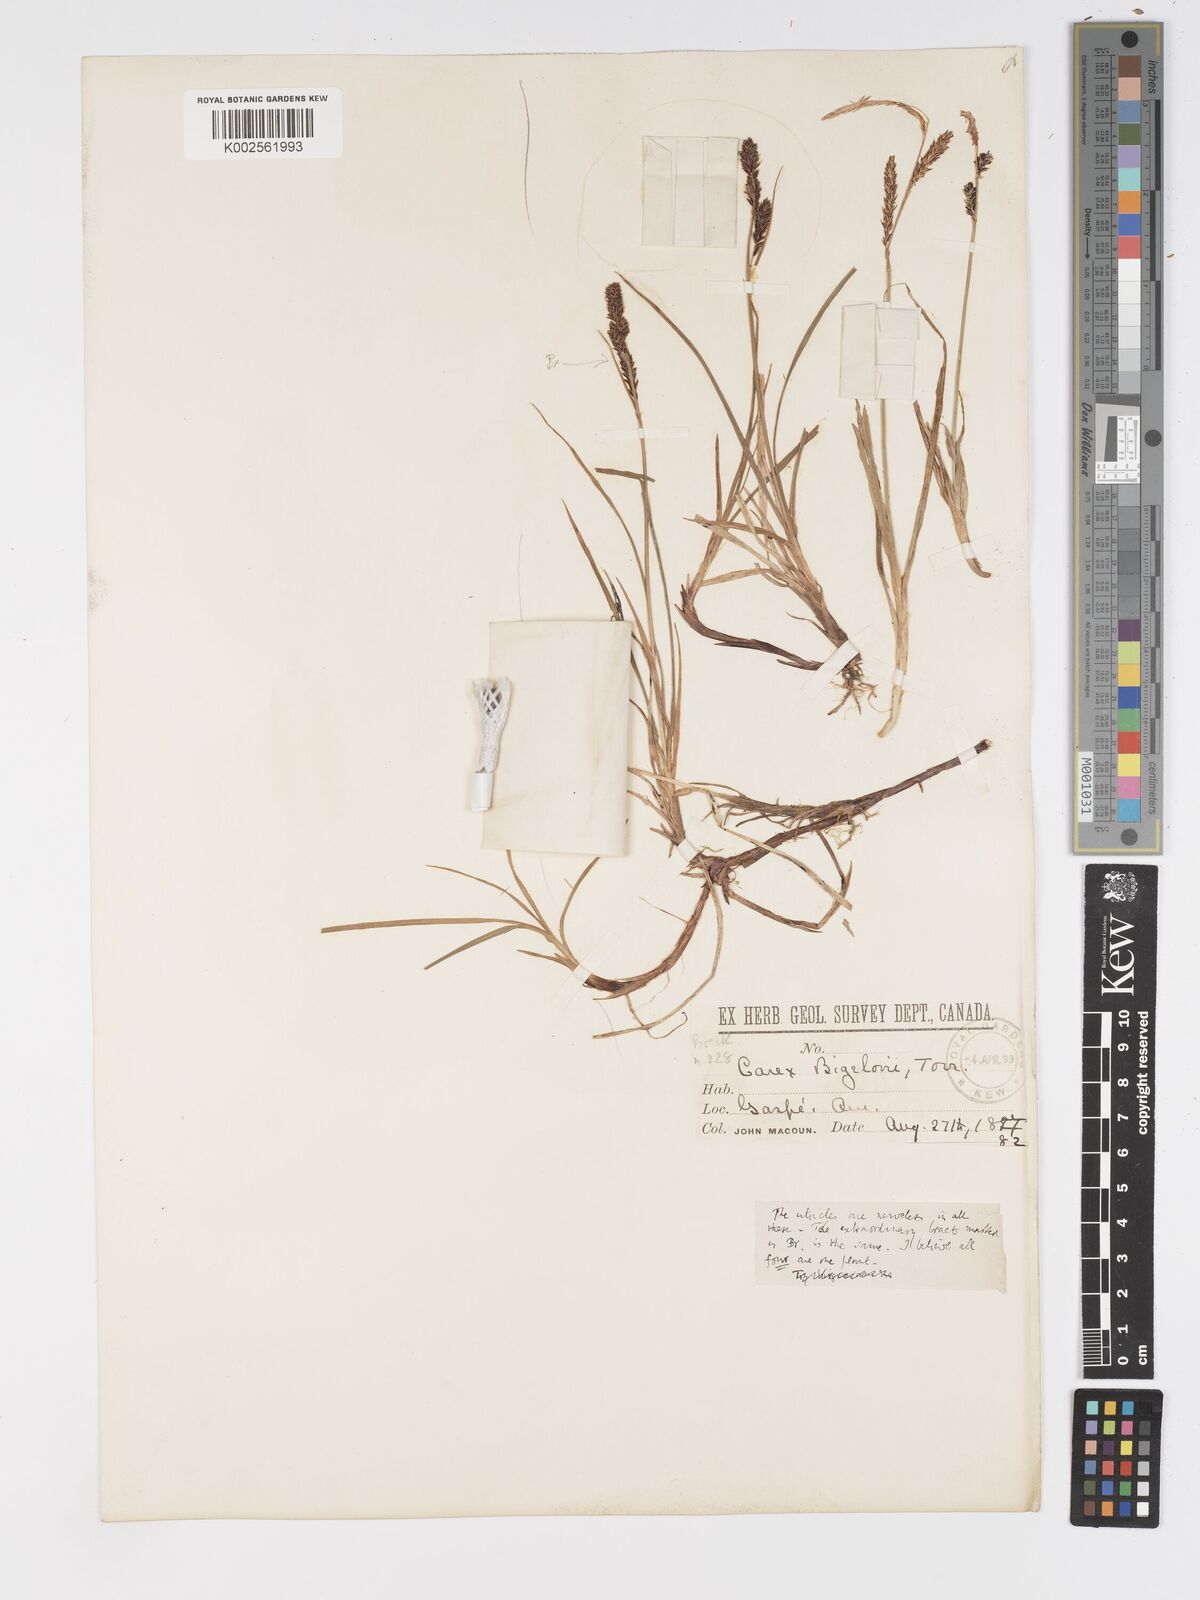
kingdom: Plantae
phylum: Tracheophyta
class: Liliopsida
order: Poales
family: Cyperaceae
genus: Carex
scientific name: Carex bigelowii
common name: Stiff sedge
